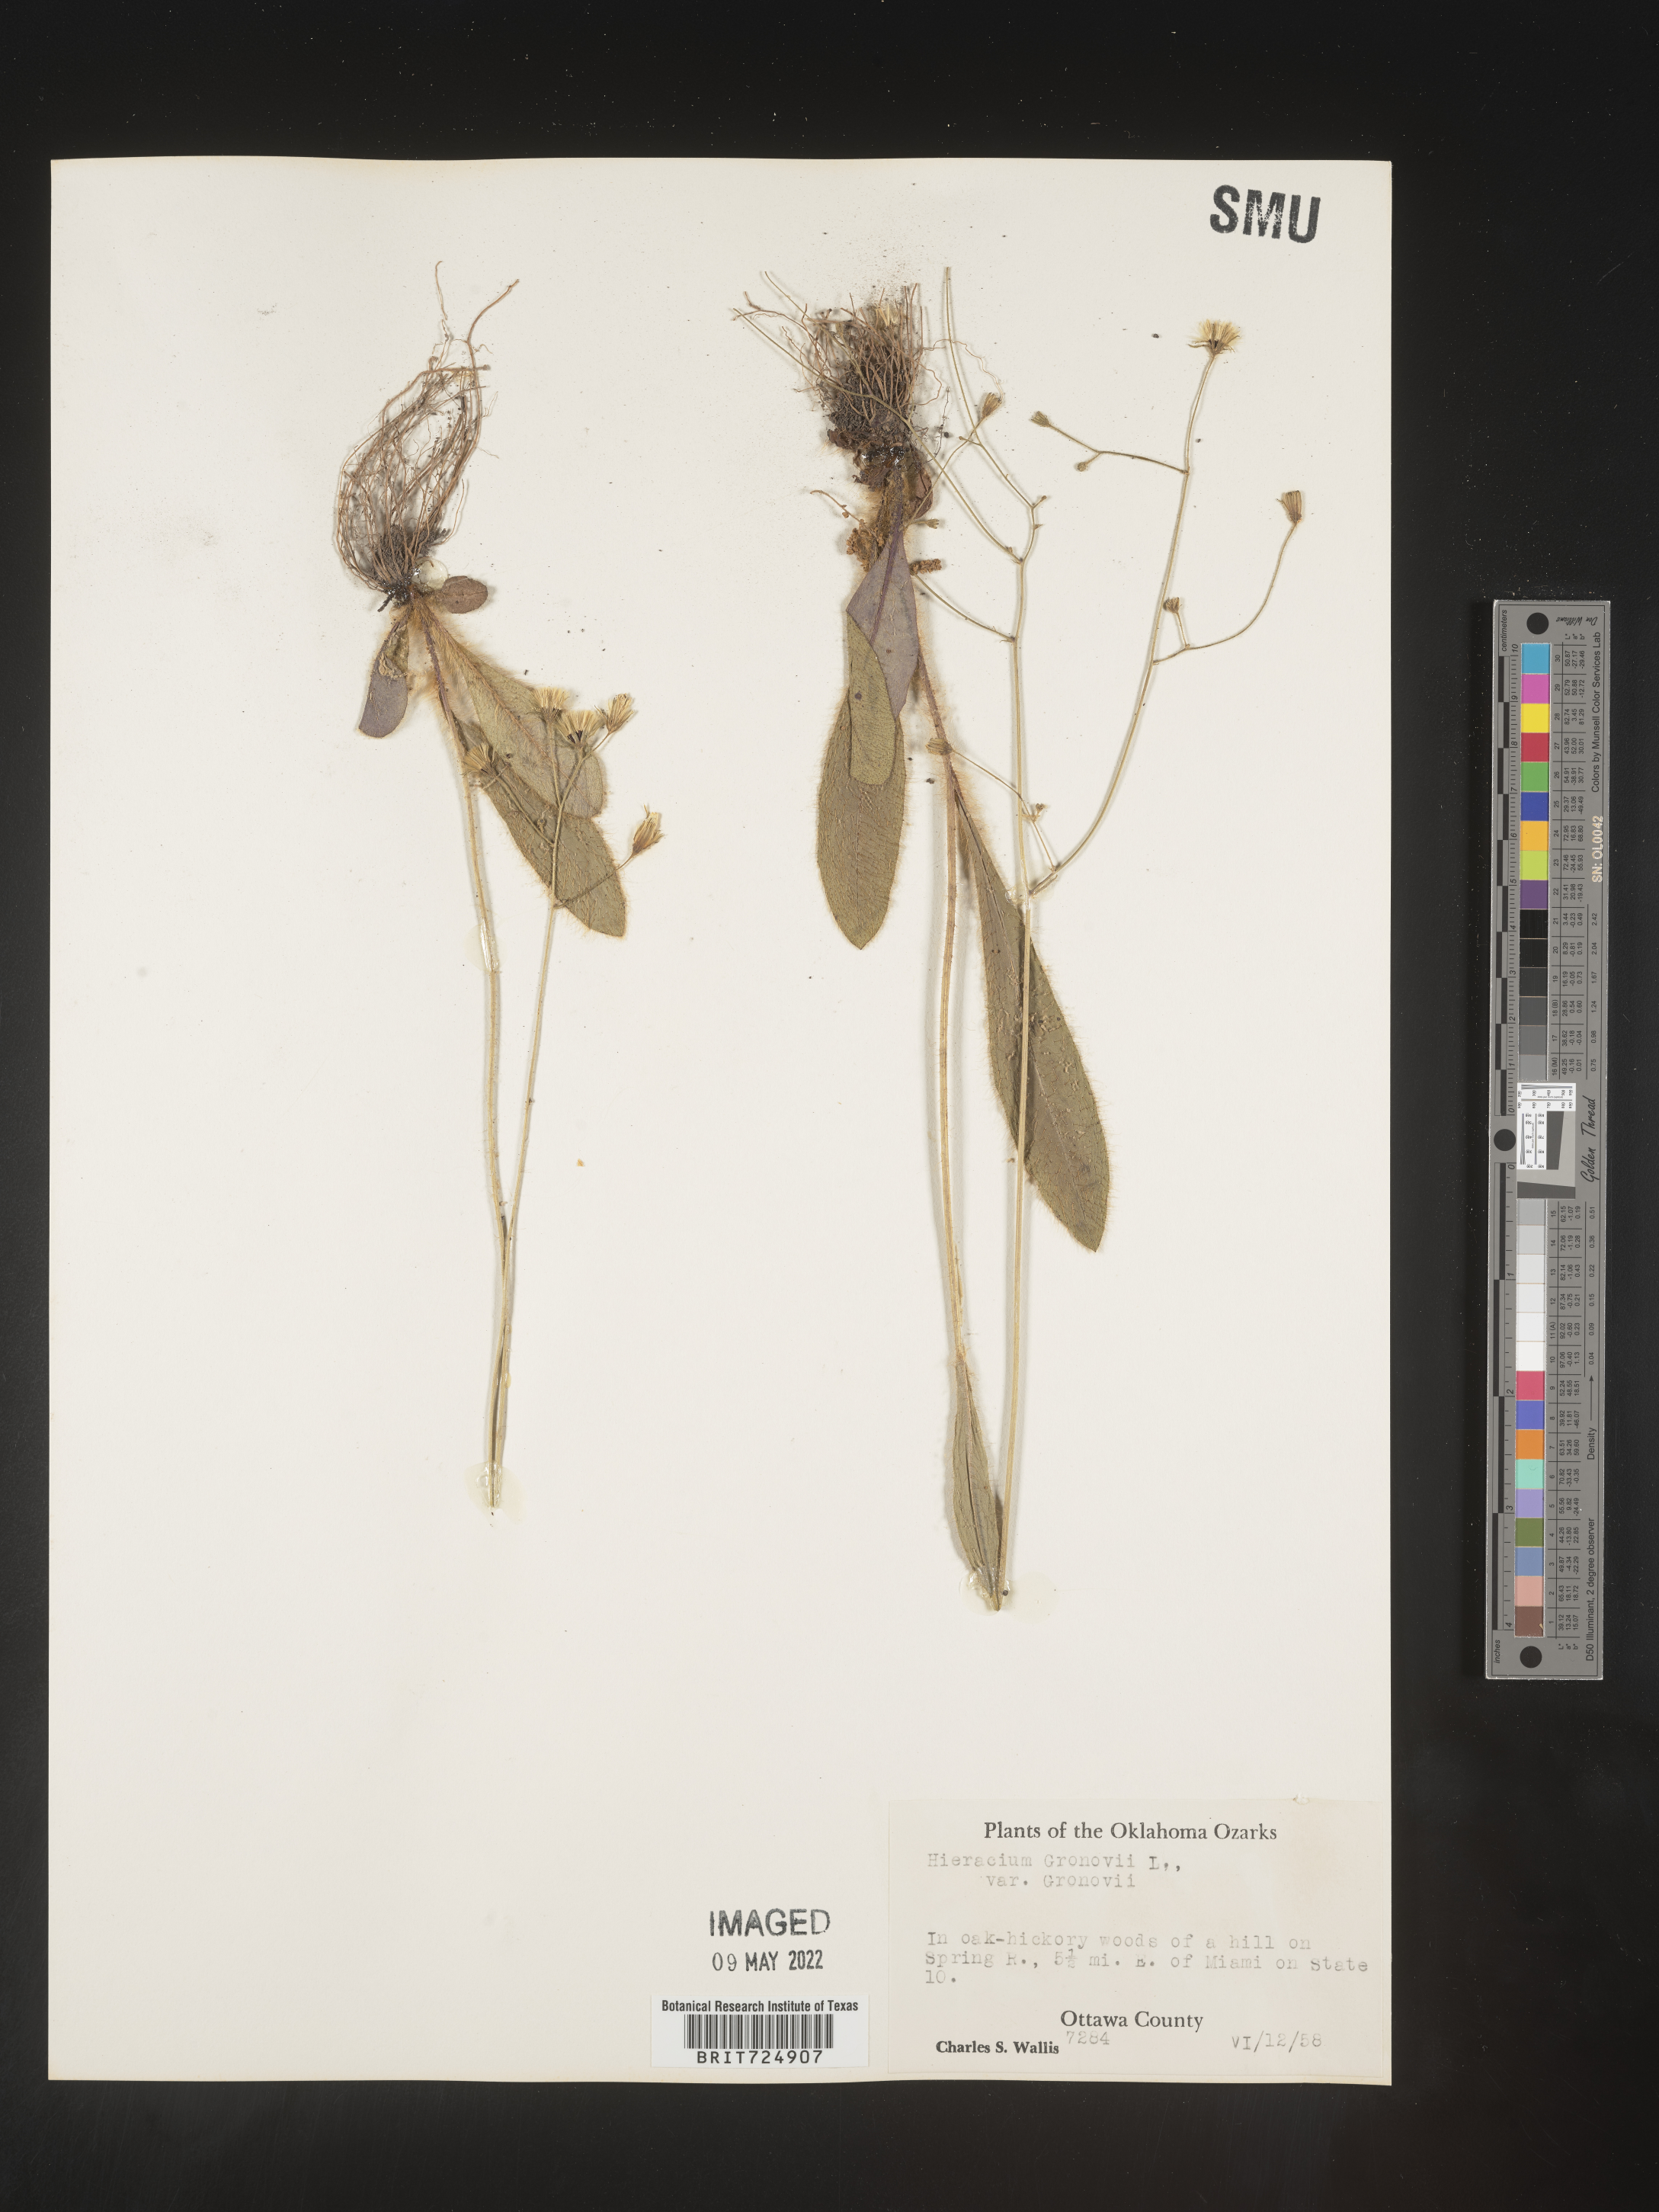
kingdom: Plantae
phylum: Tracheophyta
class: Magnoliopsida
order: Asterales
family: Asteraceae
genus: Hieracium
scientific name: Hieracium gronovii
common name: Beaked hawkweed
